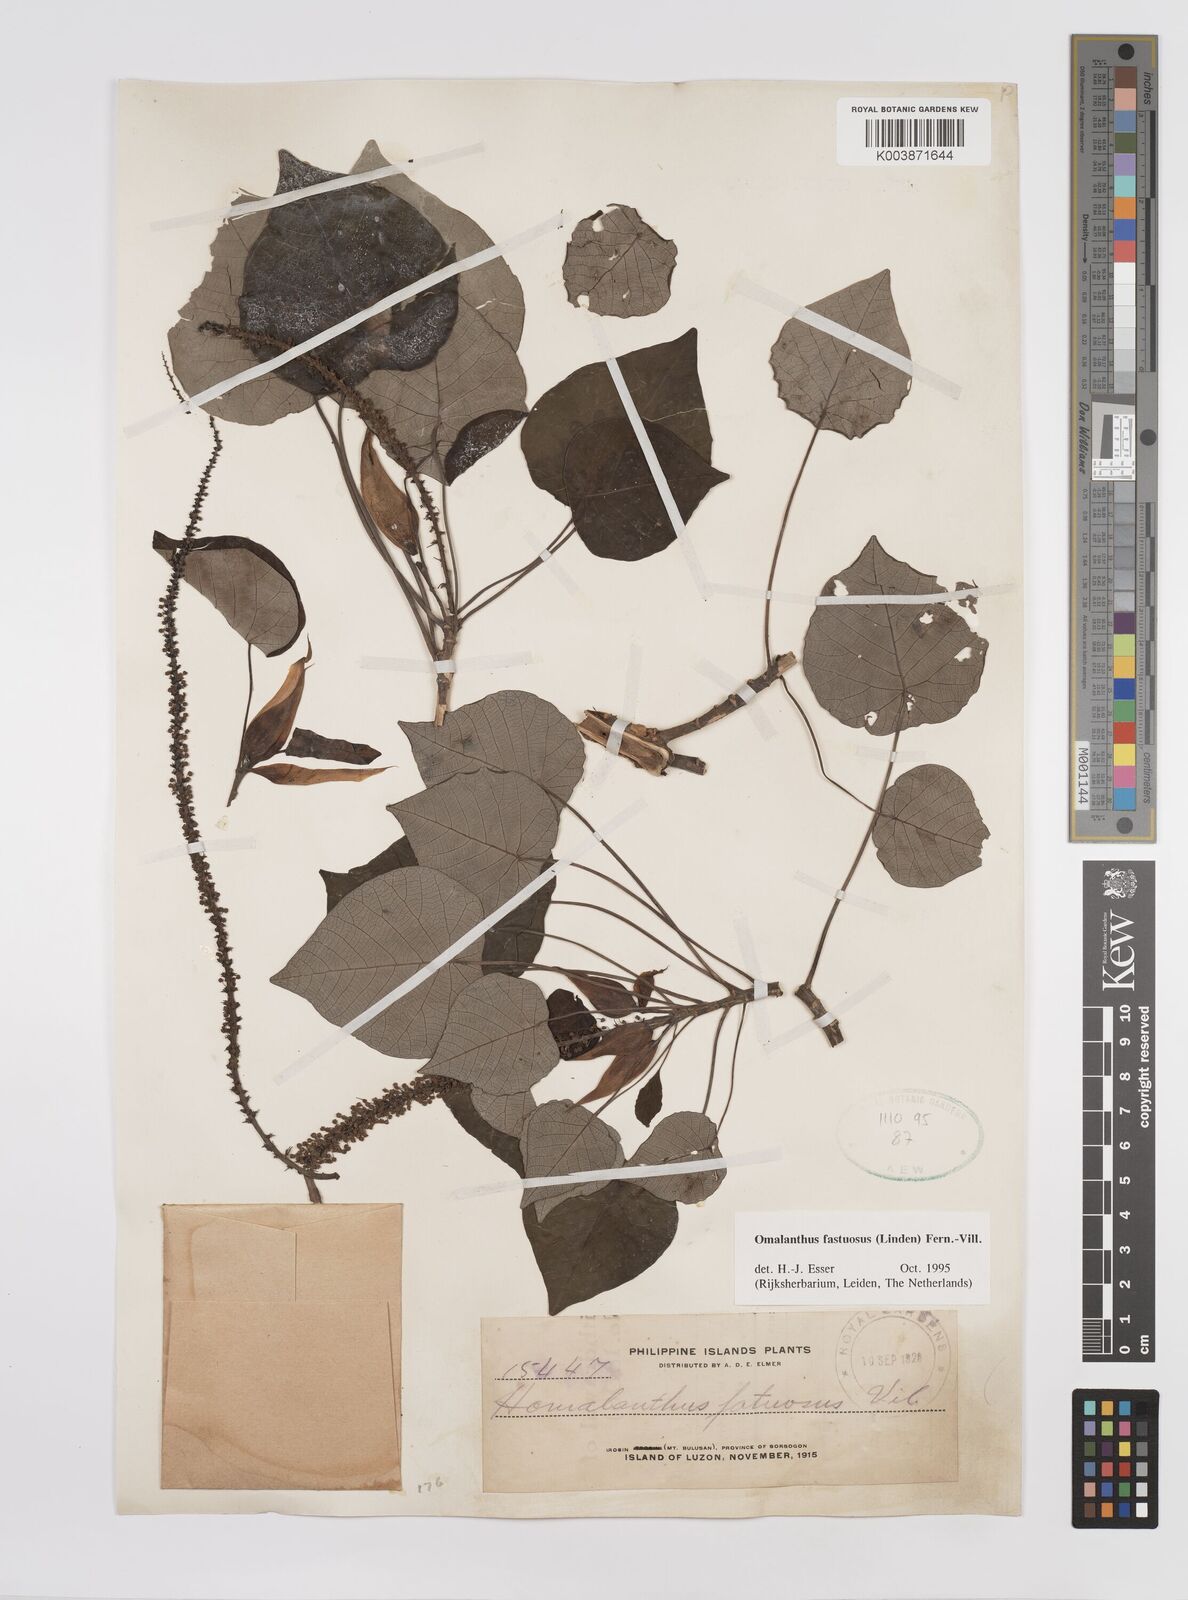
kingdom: Plantae
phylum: Tracheophyta
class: Magnoliopsida
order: Malpighiales
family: Euphorbiaceae
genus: Homalanthus
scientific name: Homalanthus fastuosus
